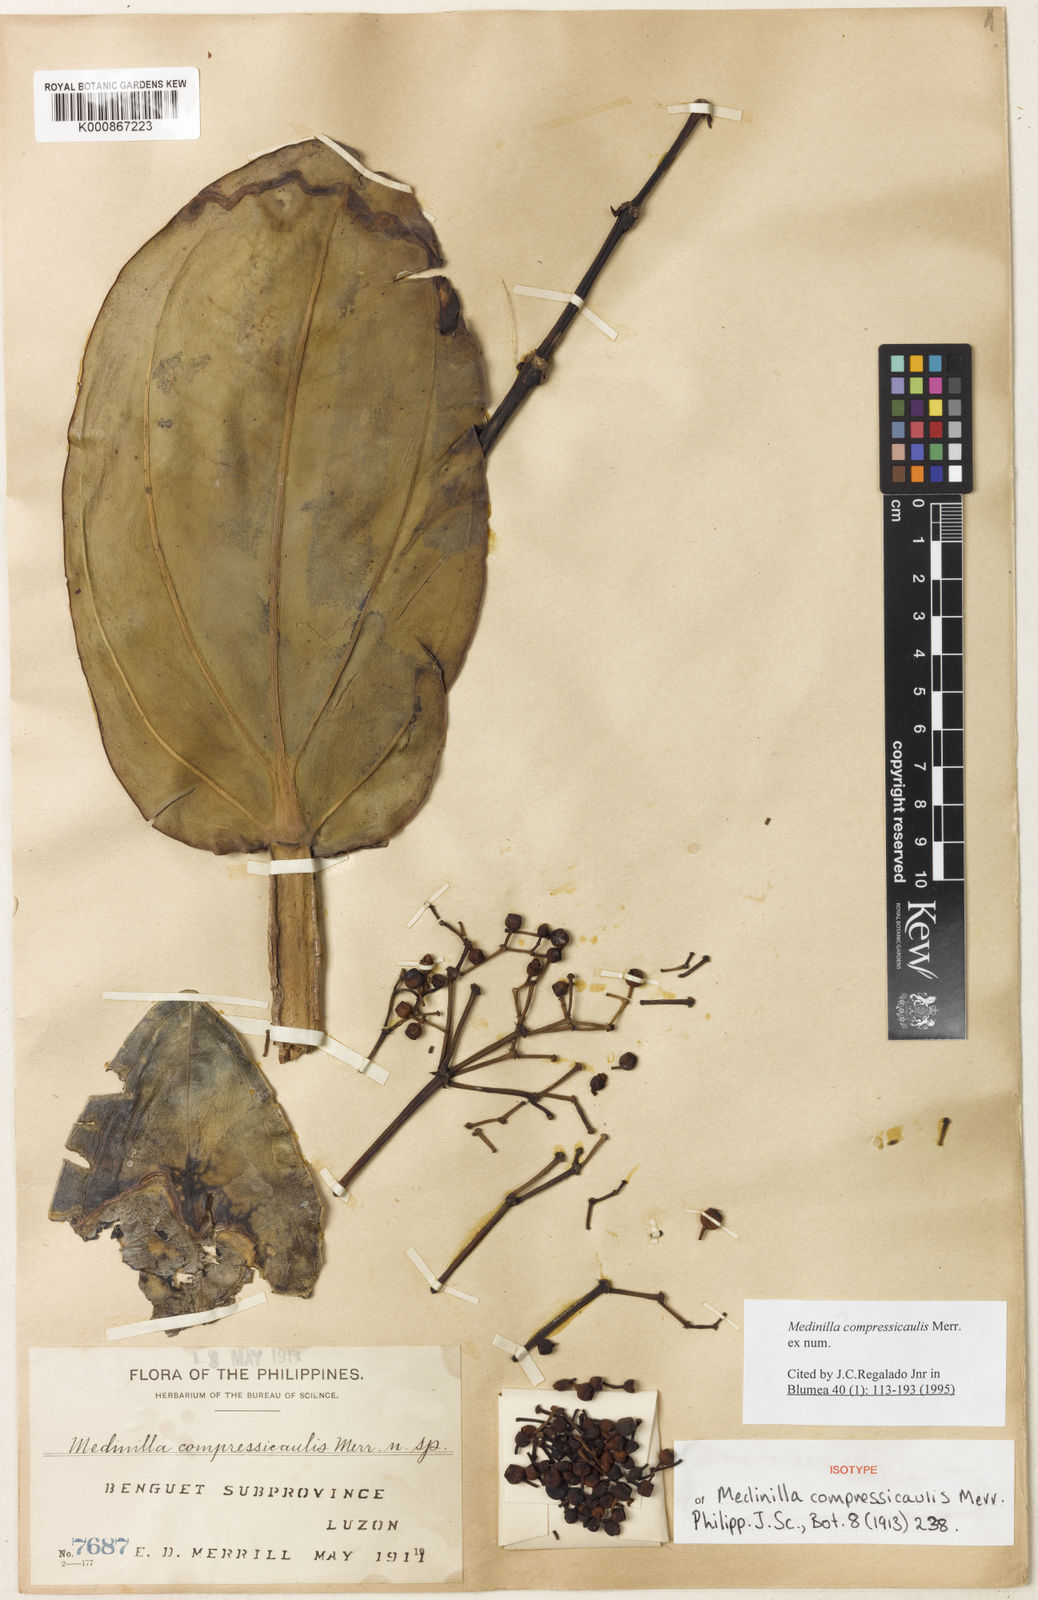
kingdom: Plantae
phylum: Tracheophyta
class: Magnoliopsida
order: Myrtales
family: Melastomataceae
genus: Medinilla
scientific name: Medinilla compressicaulis
